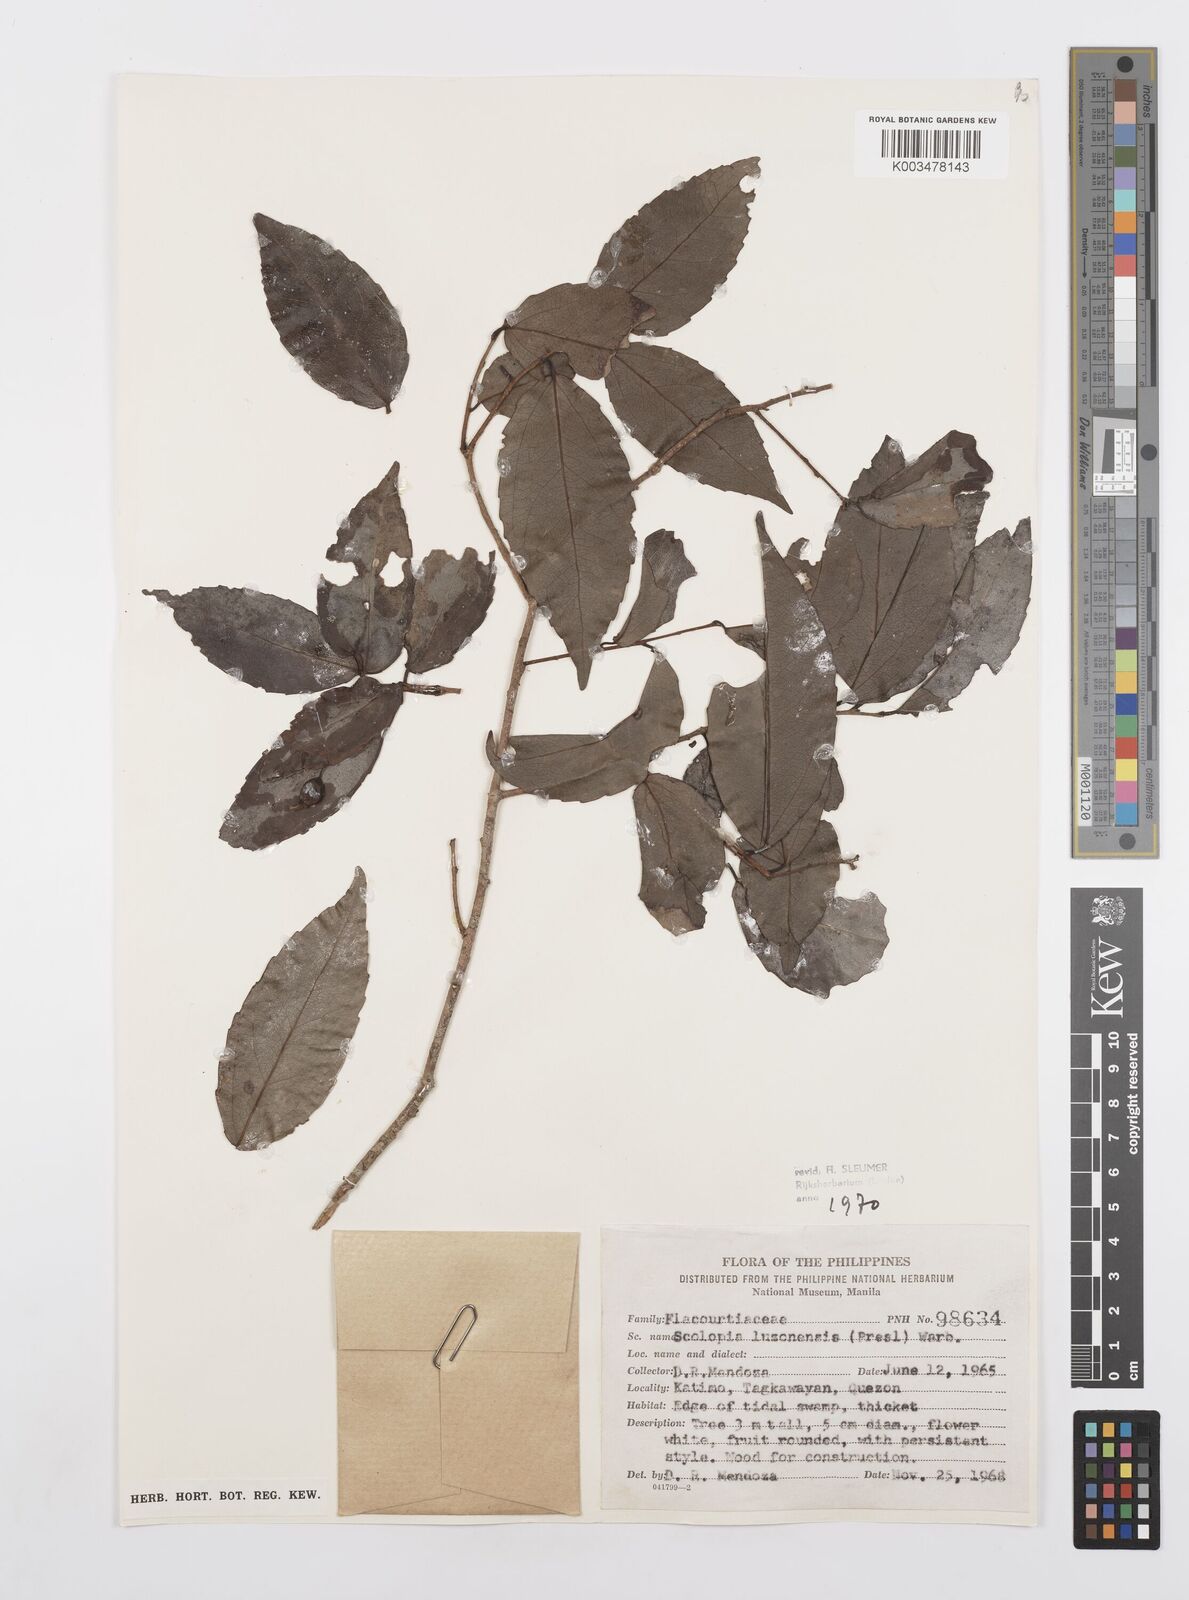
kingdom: Plantae
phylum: Tracheophyta
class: Magnoliopsida
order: Malpighiales
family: Salicaceae
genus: Scolopia
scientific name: Scolopia luzonensis
